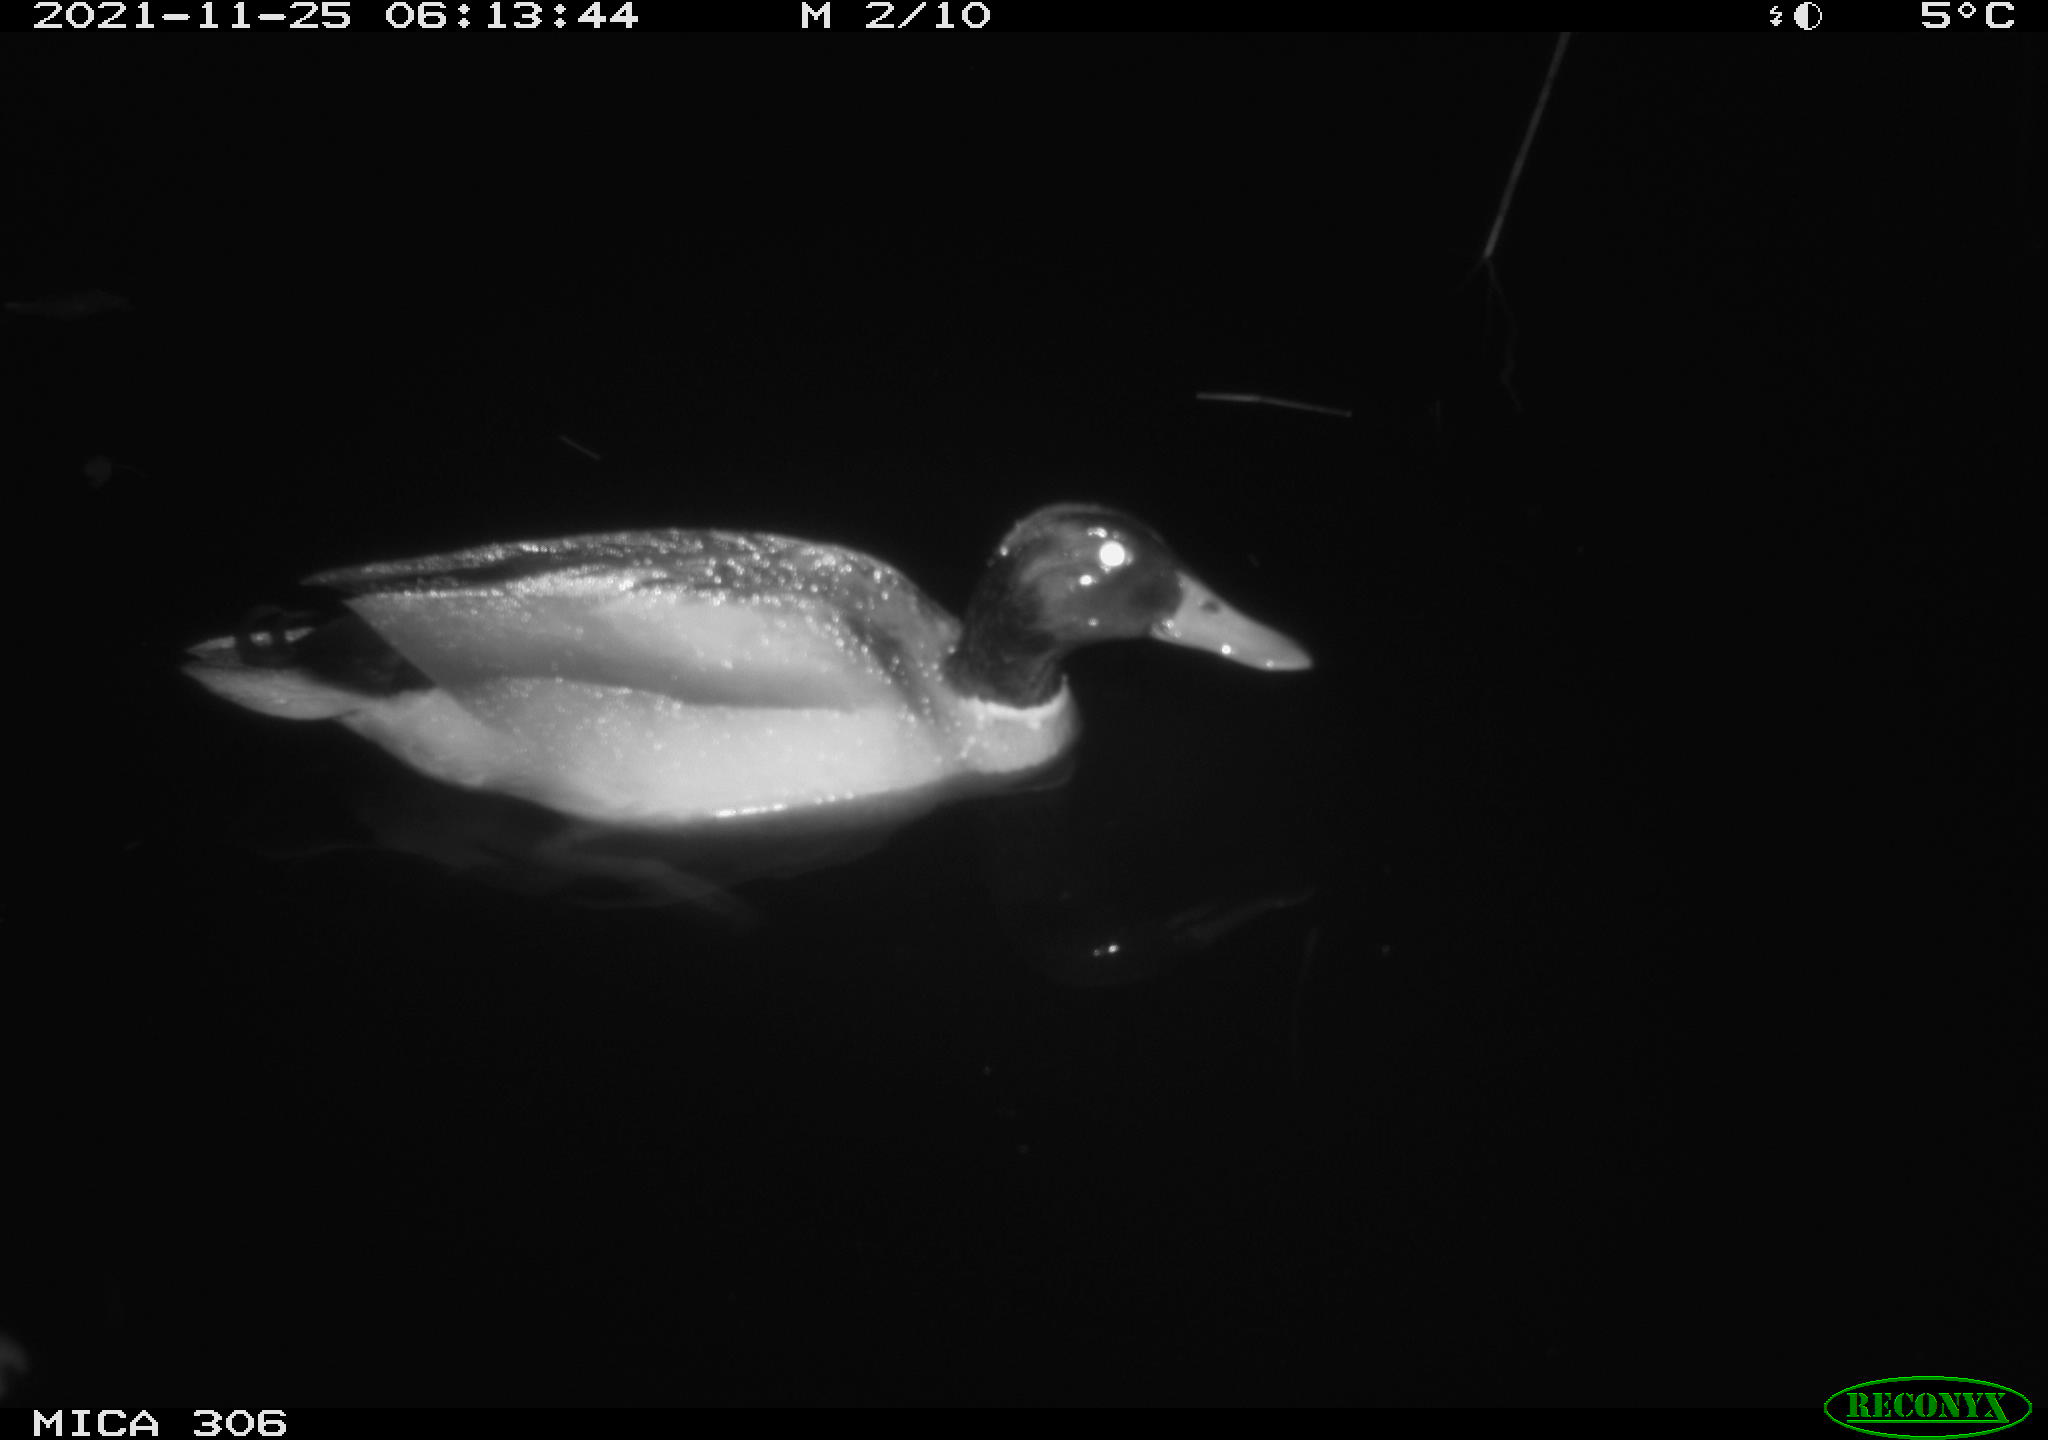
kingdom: Animalia
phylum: Chordata
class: Aves
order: Anseriformes
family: Anatidae
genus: Anas
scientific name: Anas platyrhynchos
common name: Mallard
